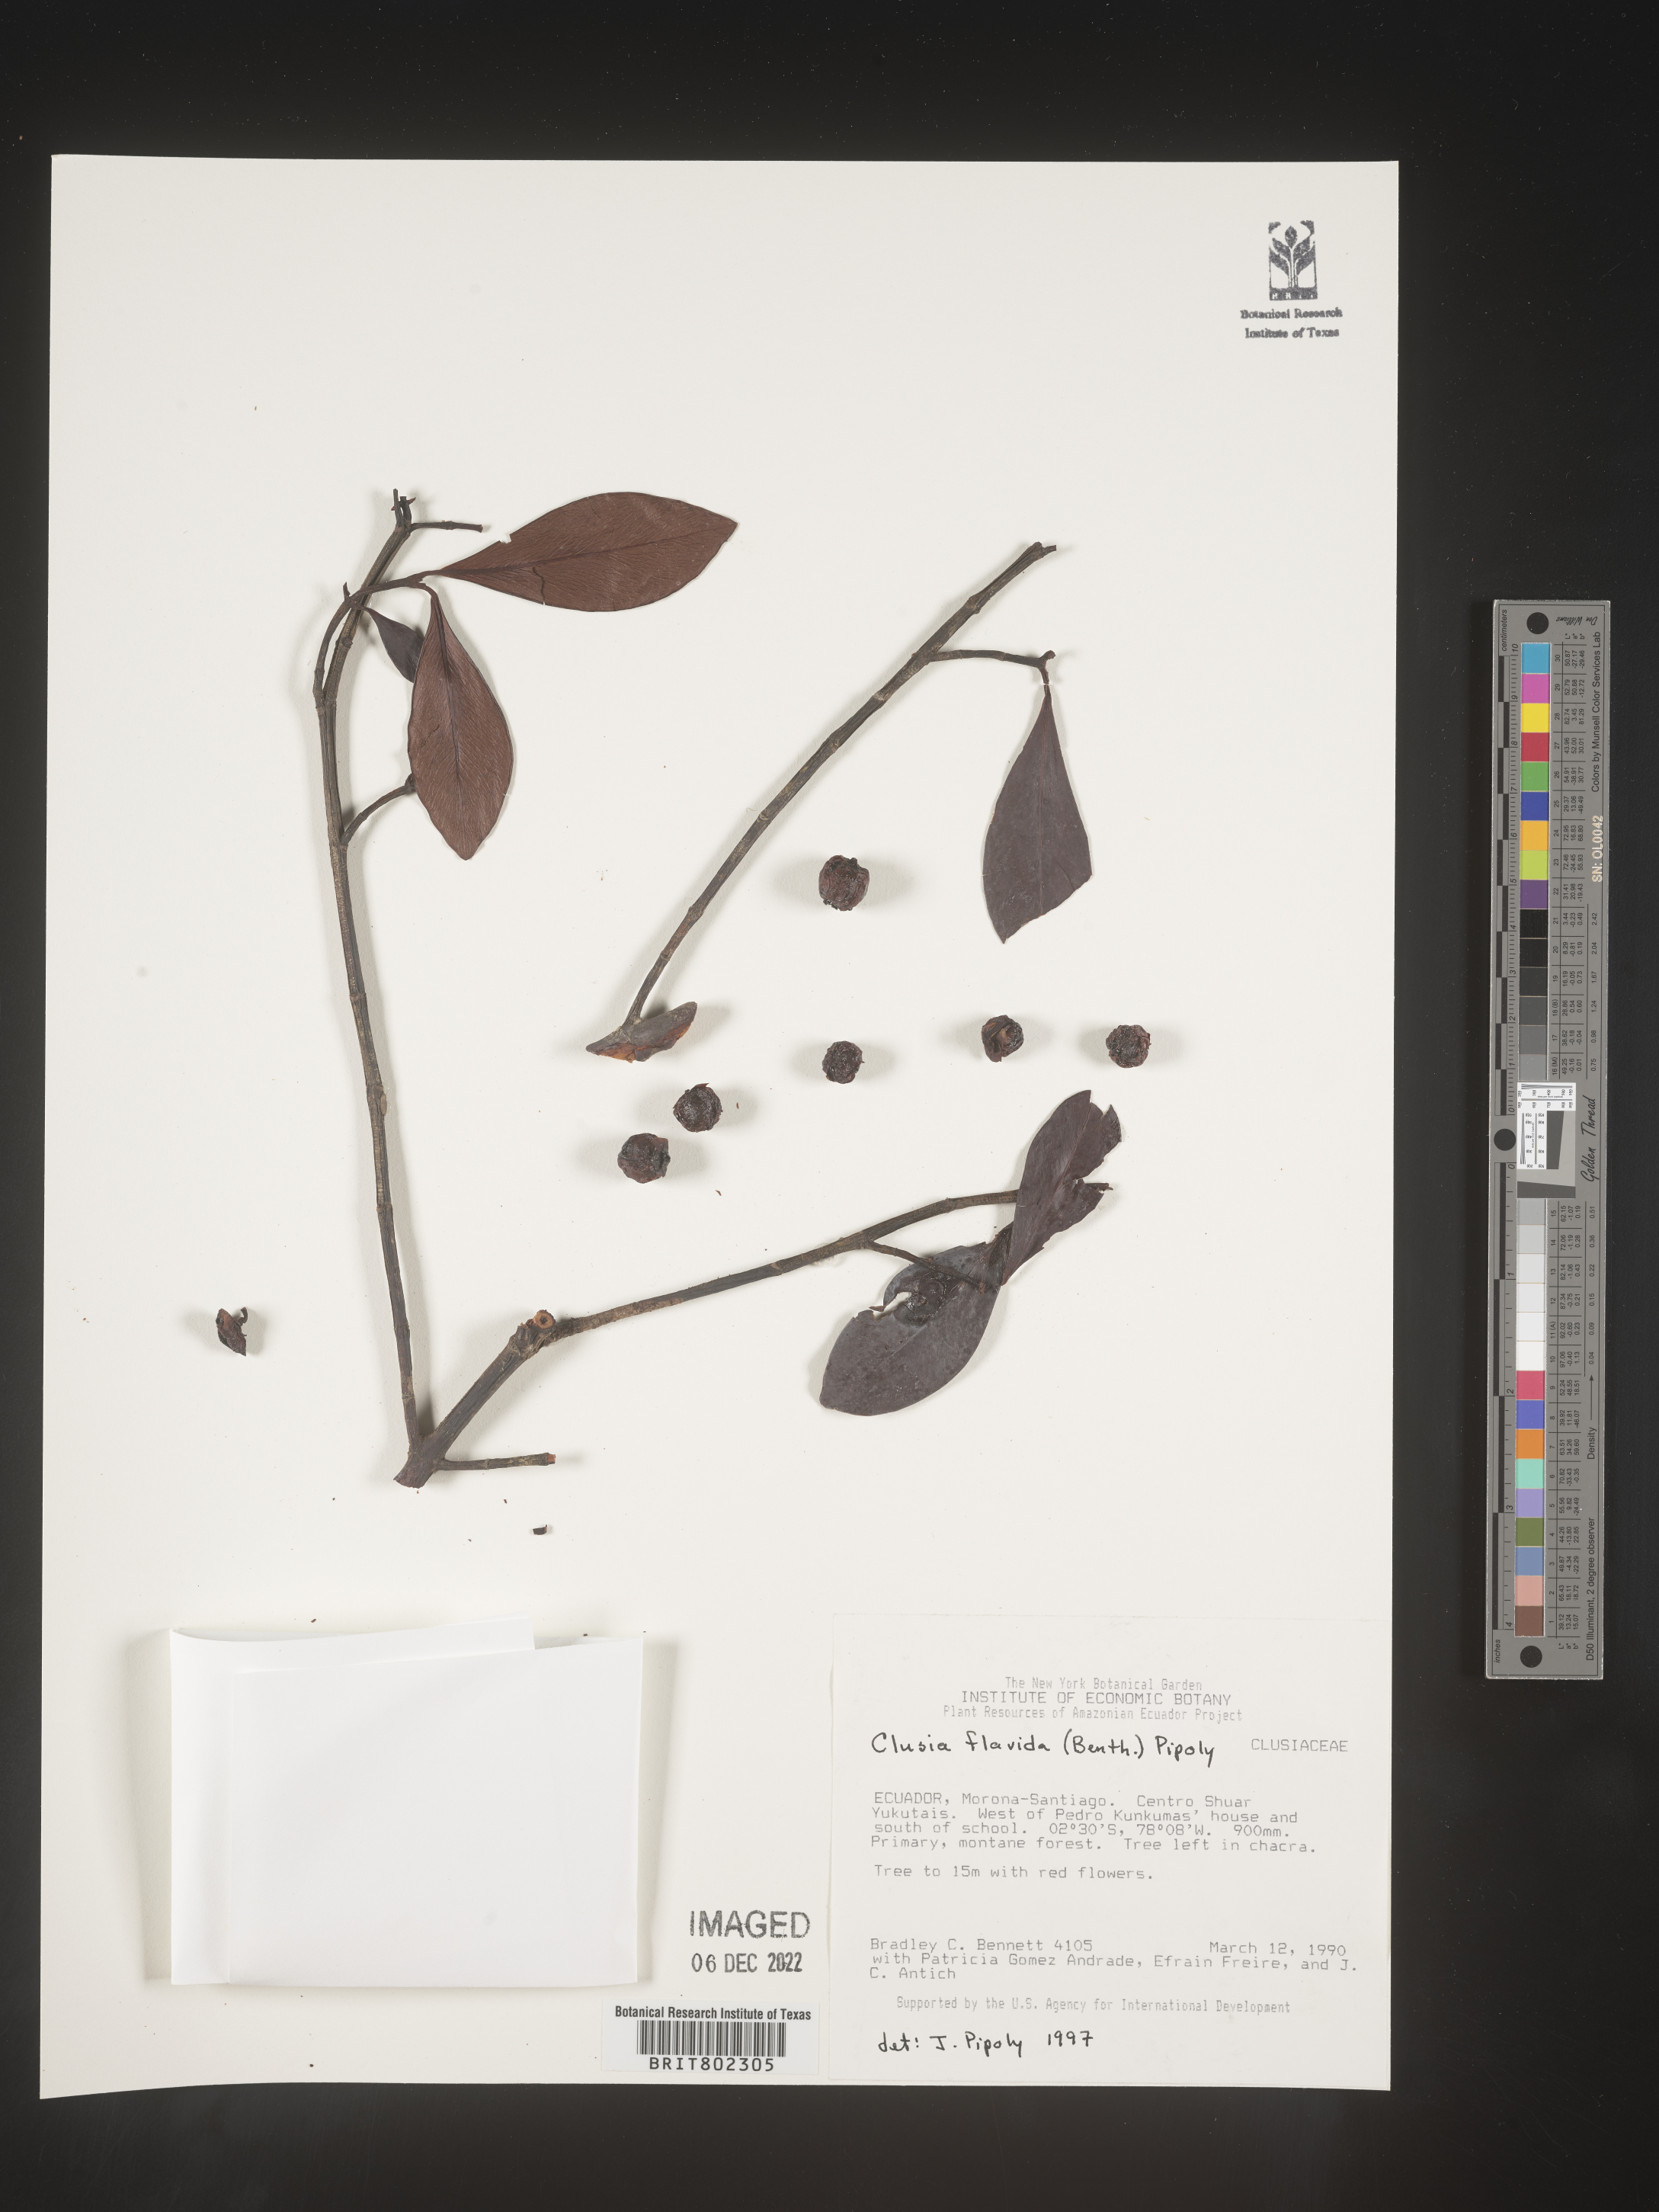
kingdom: Plantae
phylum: Tracheophyta
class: Magnoliopsida
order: Malpighiales
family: Clusiaceae
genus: Clusia
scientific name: Clusia flavida
